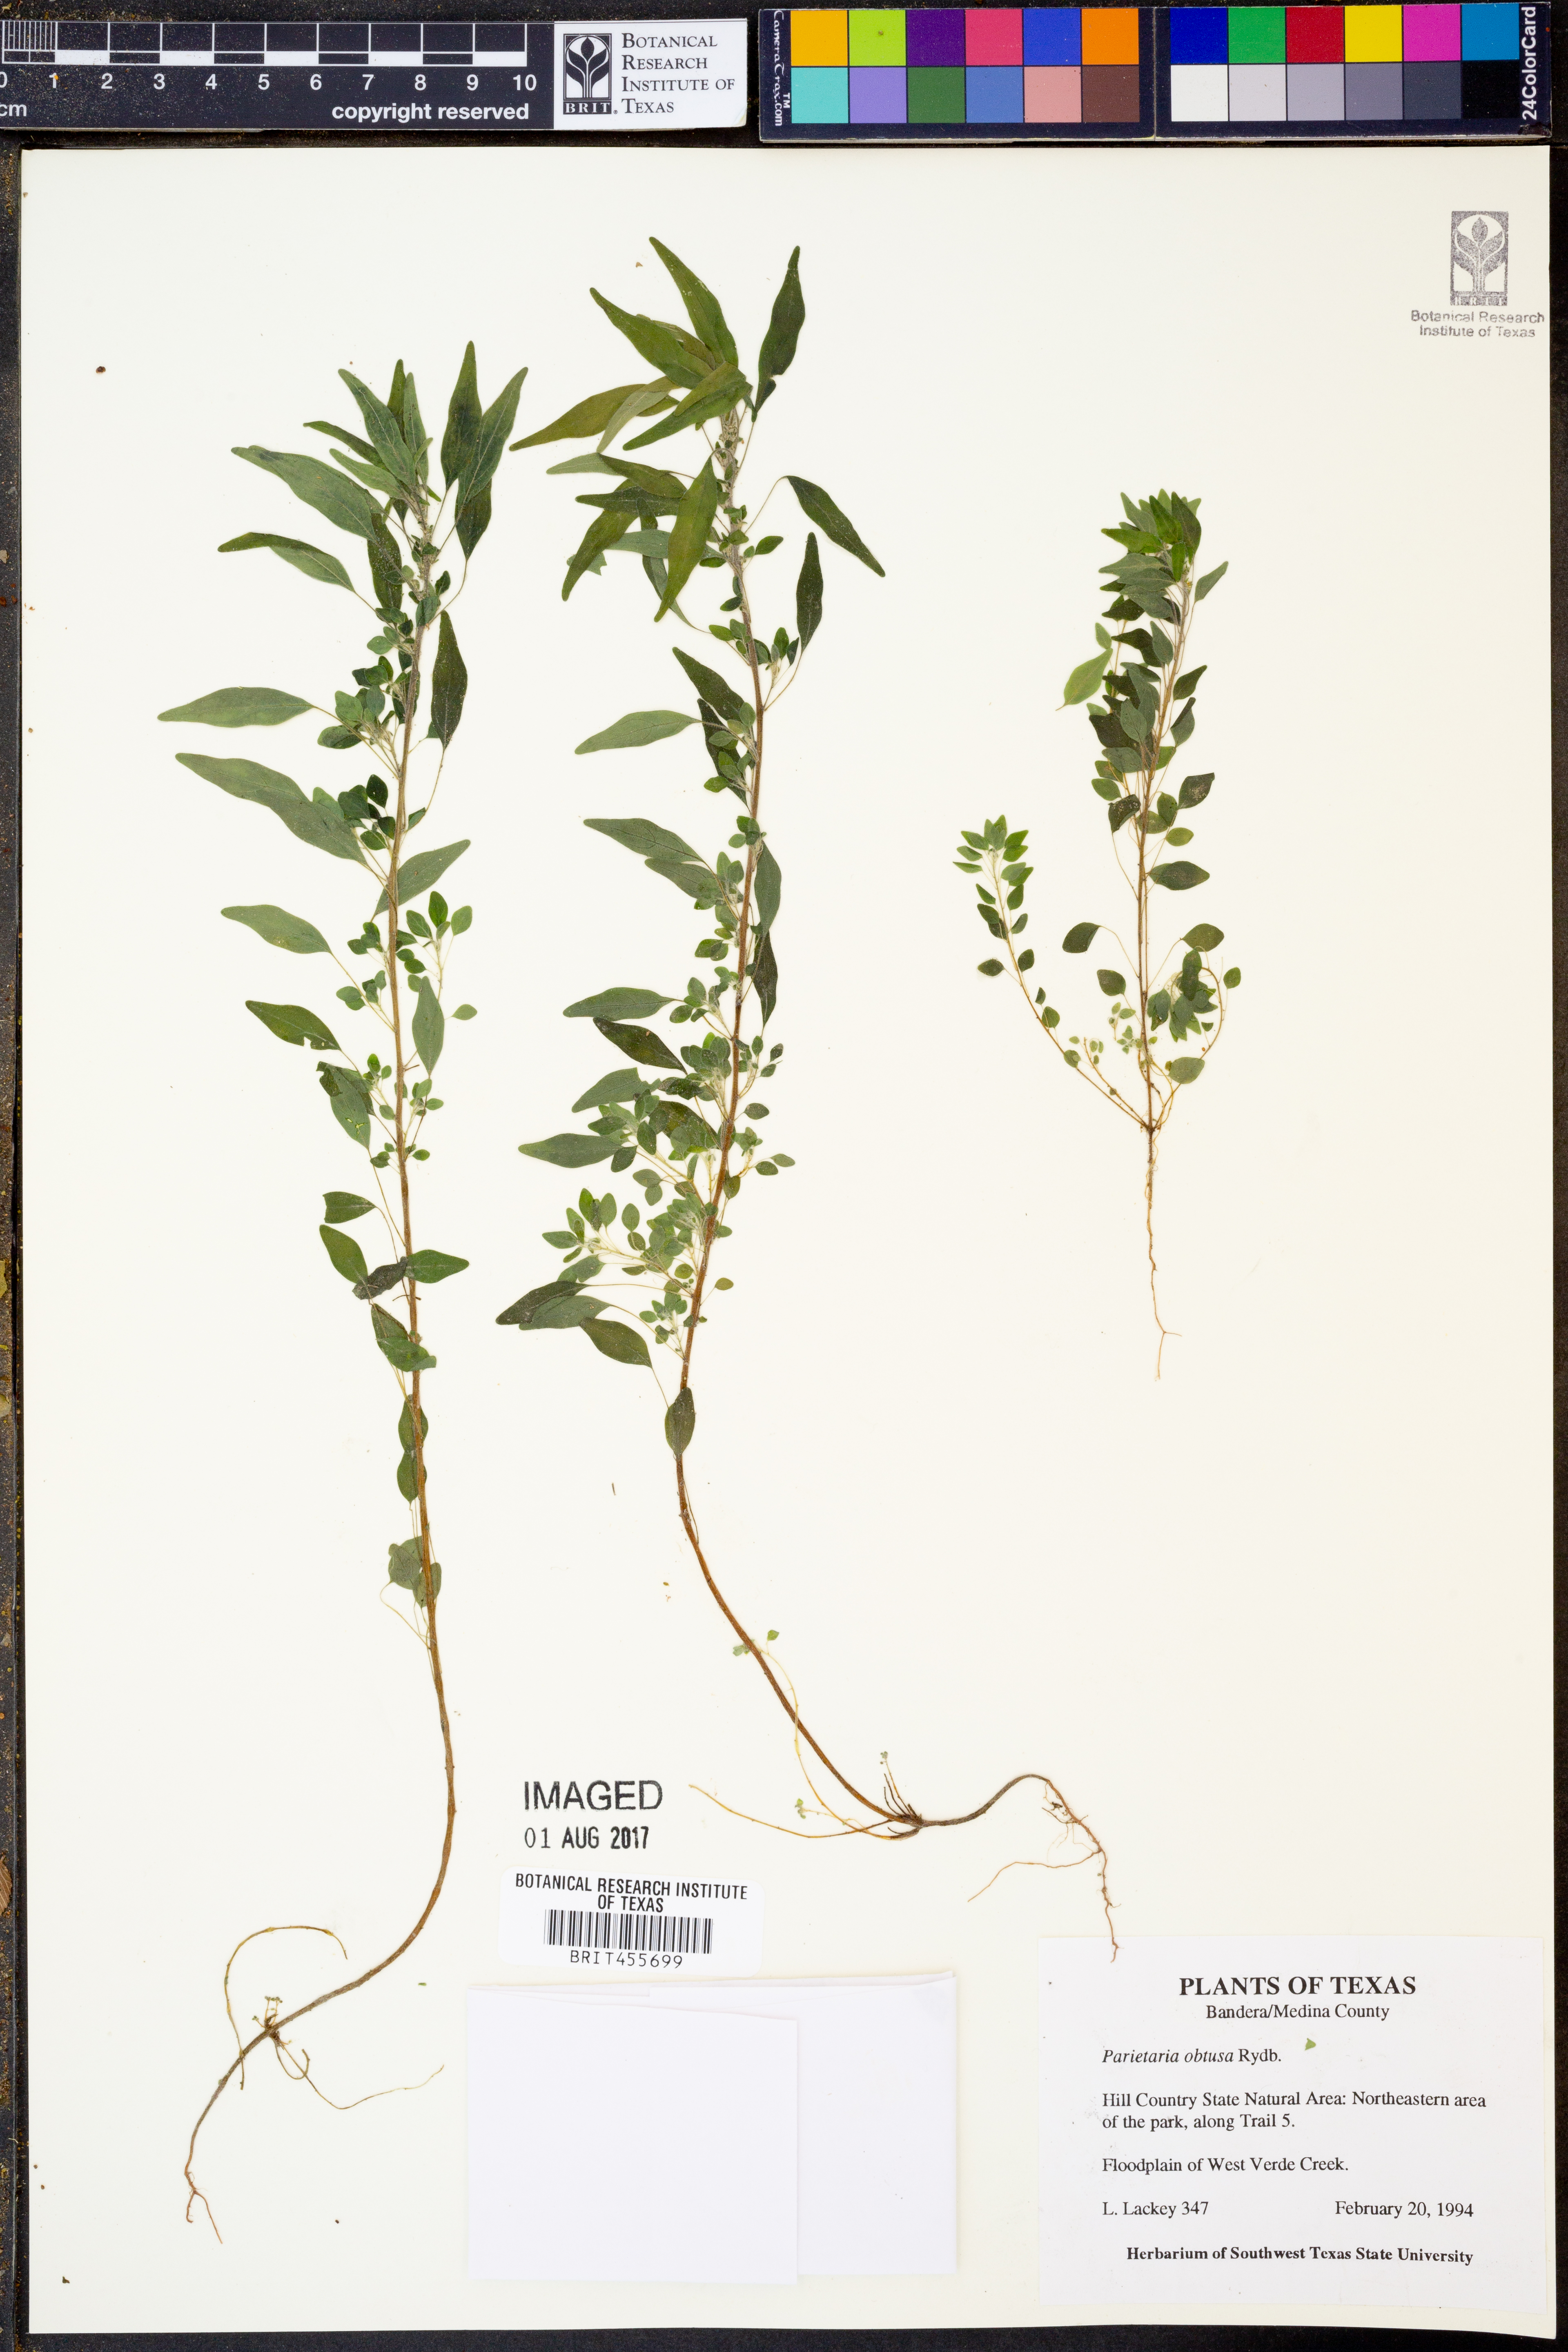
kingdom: Plantae
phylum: Tracheophyta
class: Magnoliopsida
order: Rosales
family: Urticaceae
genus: Parietaria
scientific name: Parietaria pensylvanica
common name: Pennsylvania pellitory
